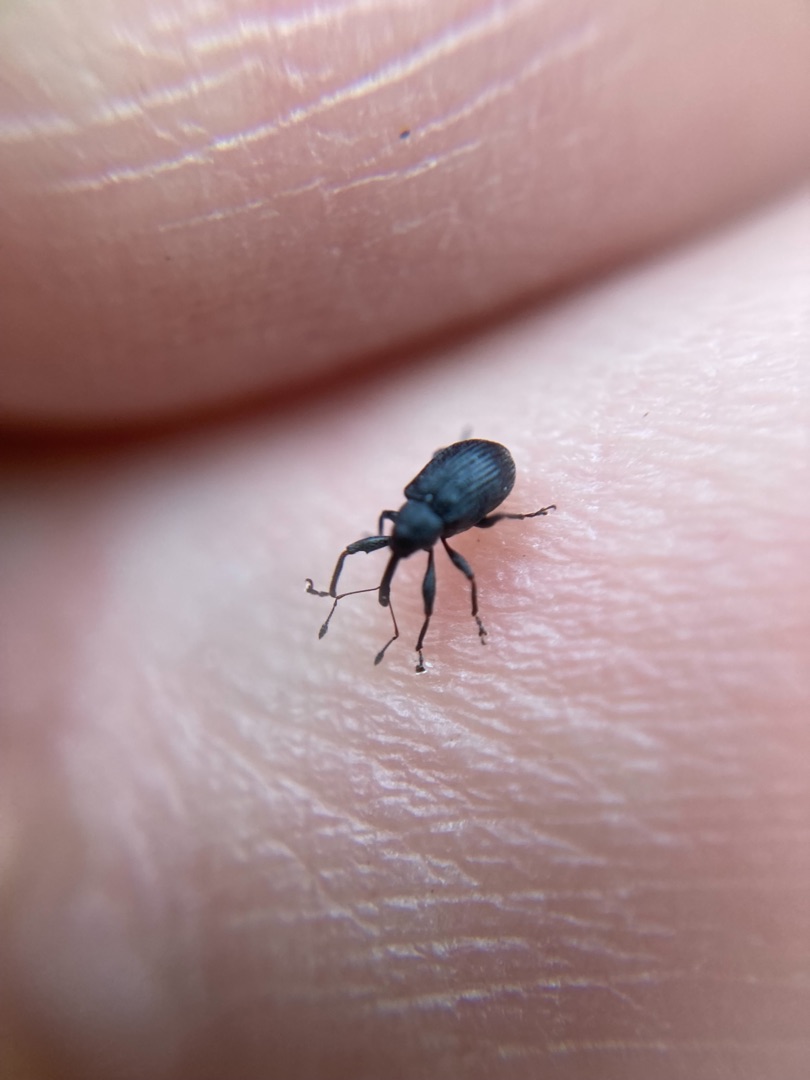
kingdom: Animalia
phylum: Arthropoda
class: Insecta
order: Coleoptera
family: Curculionidae
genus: Anthonomus
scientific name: Anthonomus rubi
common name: Hindbærsnudebille
